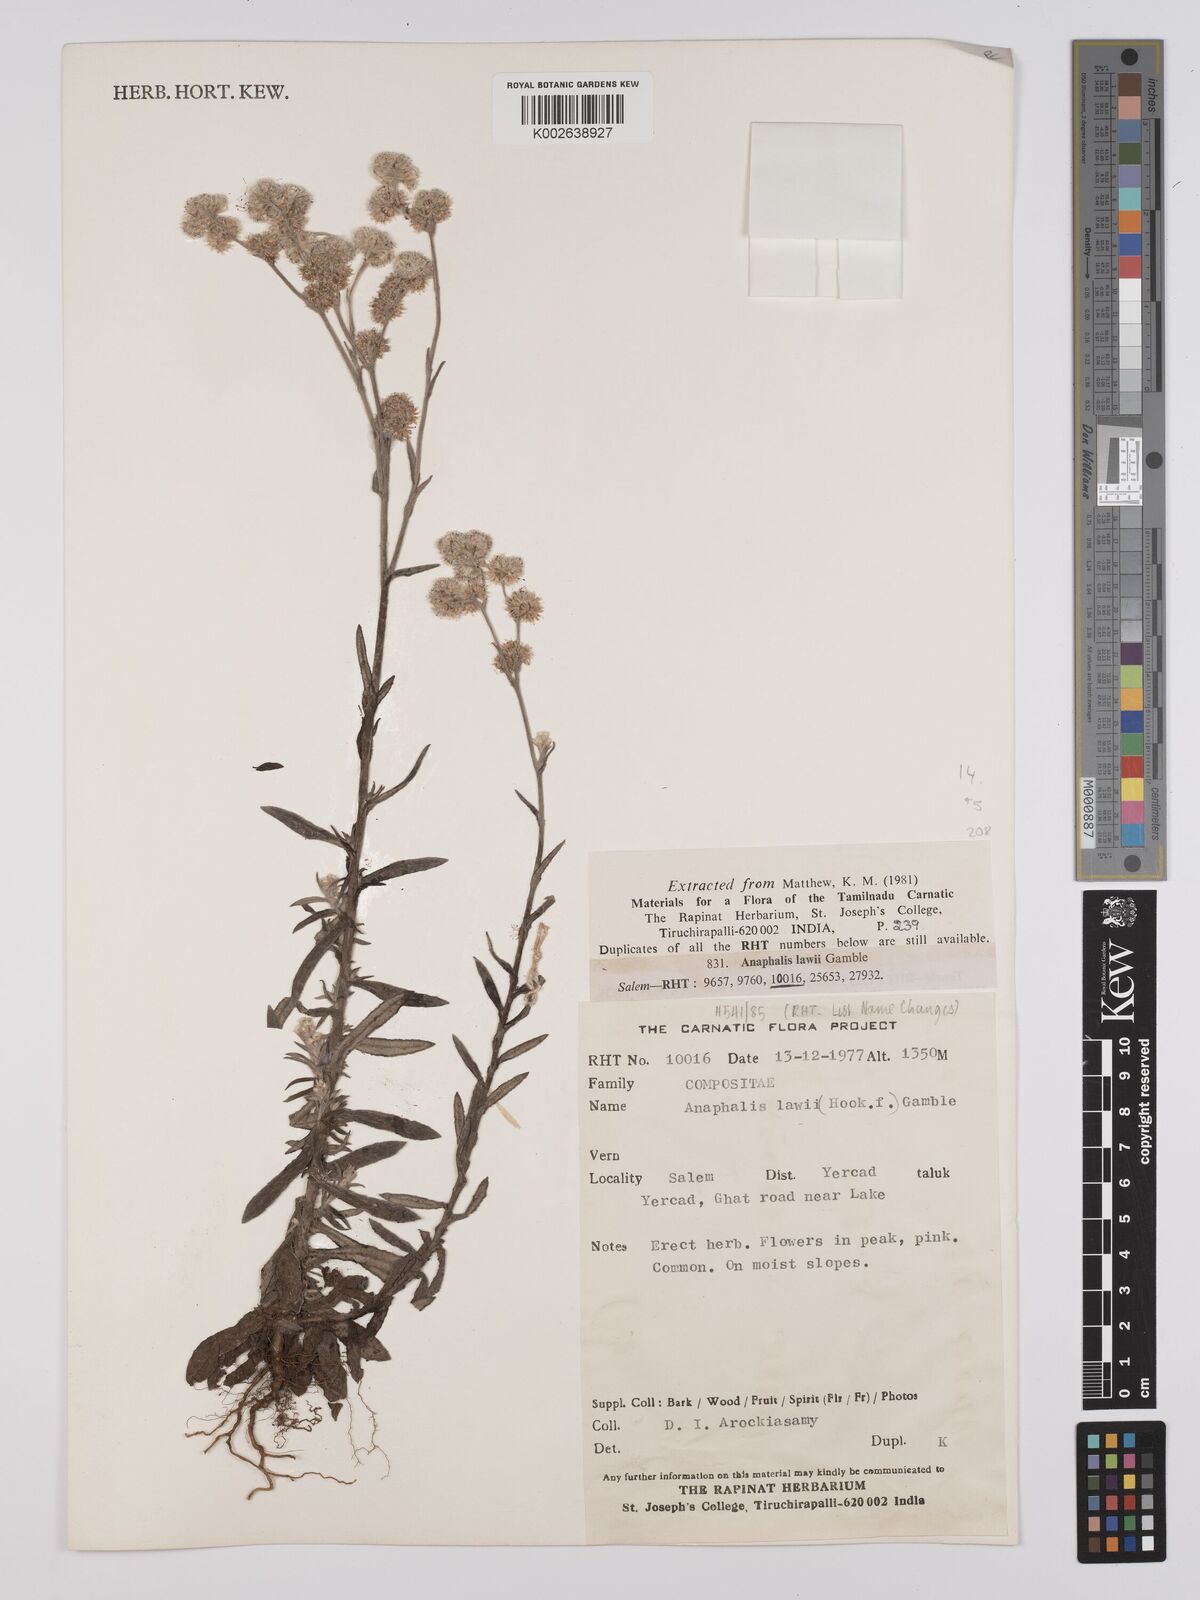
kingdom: Plantae
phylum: Tracheophyta
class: Magnoliopsida
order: Asterales
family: Asteraceae
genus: Anaphalis
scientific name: Anaphalis lawii
